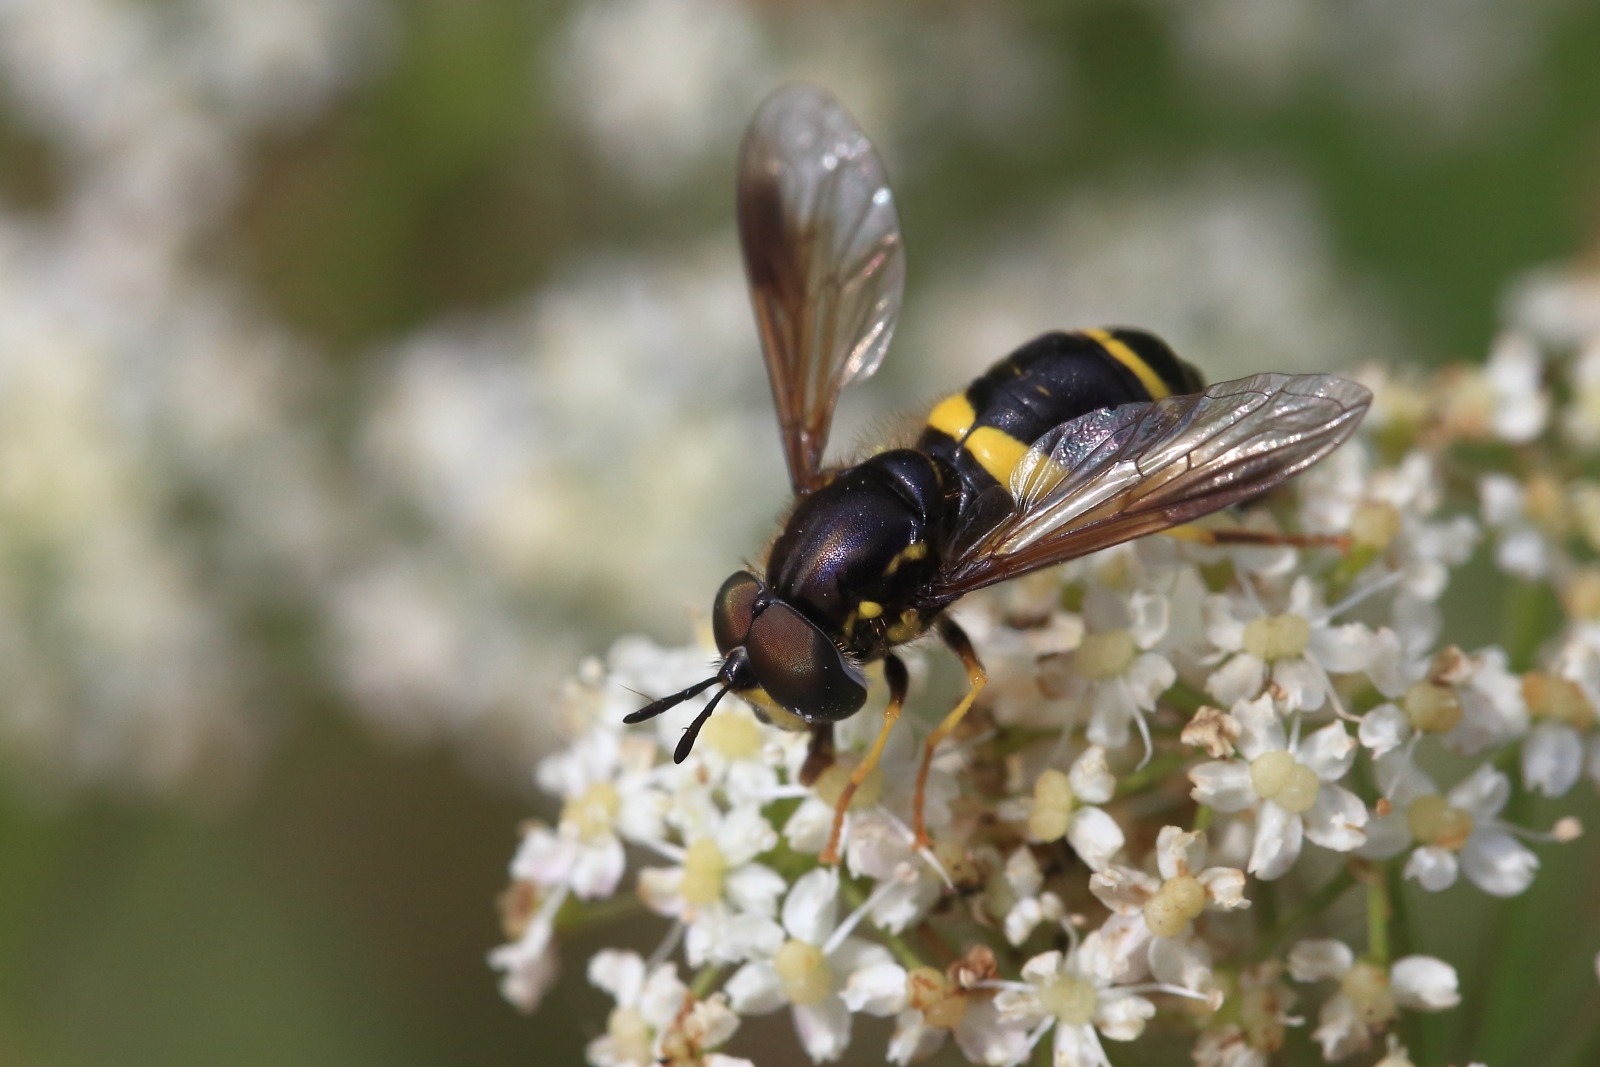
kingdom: Animalia
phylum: Arthropoda
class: Insecta
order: Diptera
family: Syrphidae
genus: Chrysotoxum
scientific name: Chrysotoxum bicincta
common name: Tobåndet hvepsesvirreflue
